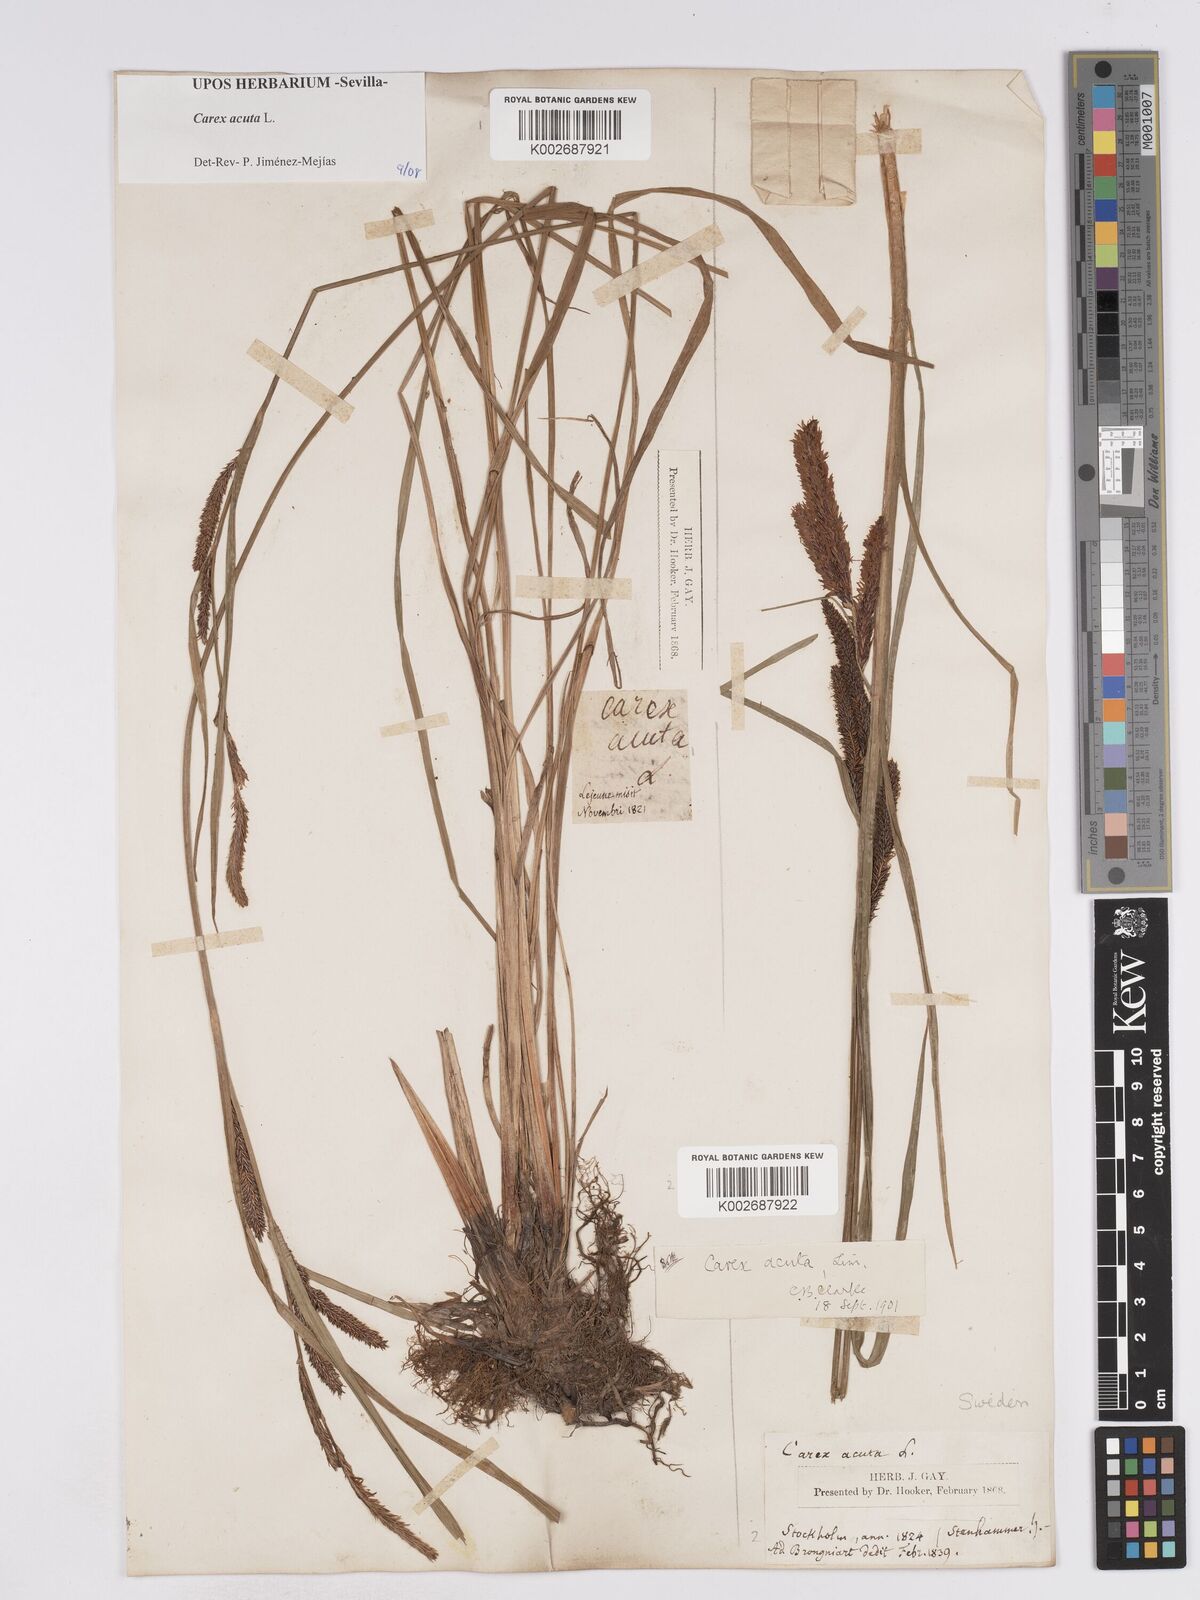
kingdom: Plantae
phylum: Tracheophyta
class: Liliopsida
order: Poales
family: Cyperaceae
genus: Carex
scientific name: Carex acuta
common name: Slender tufted-sedge
